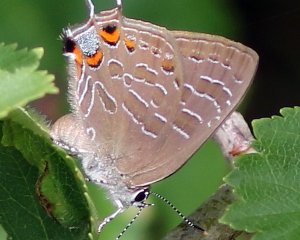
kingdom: Animalia
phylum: Arthropoda
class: Insecta
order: Lepidoptera
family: Lycaenidae
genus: Satyrium
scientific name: Satyrium liparops
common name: Striped Hairstreak
